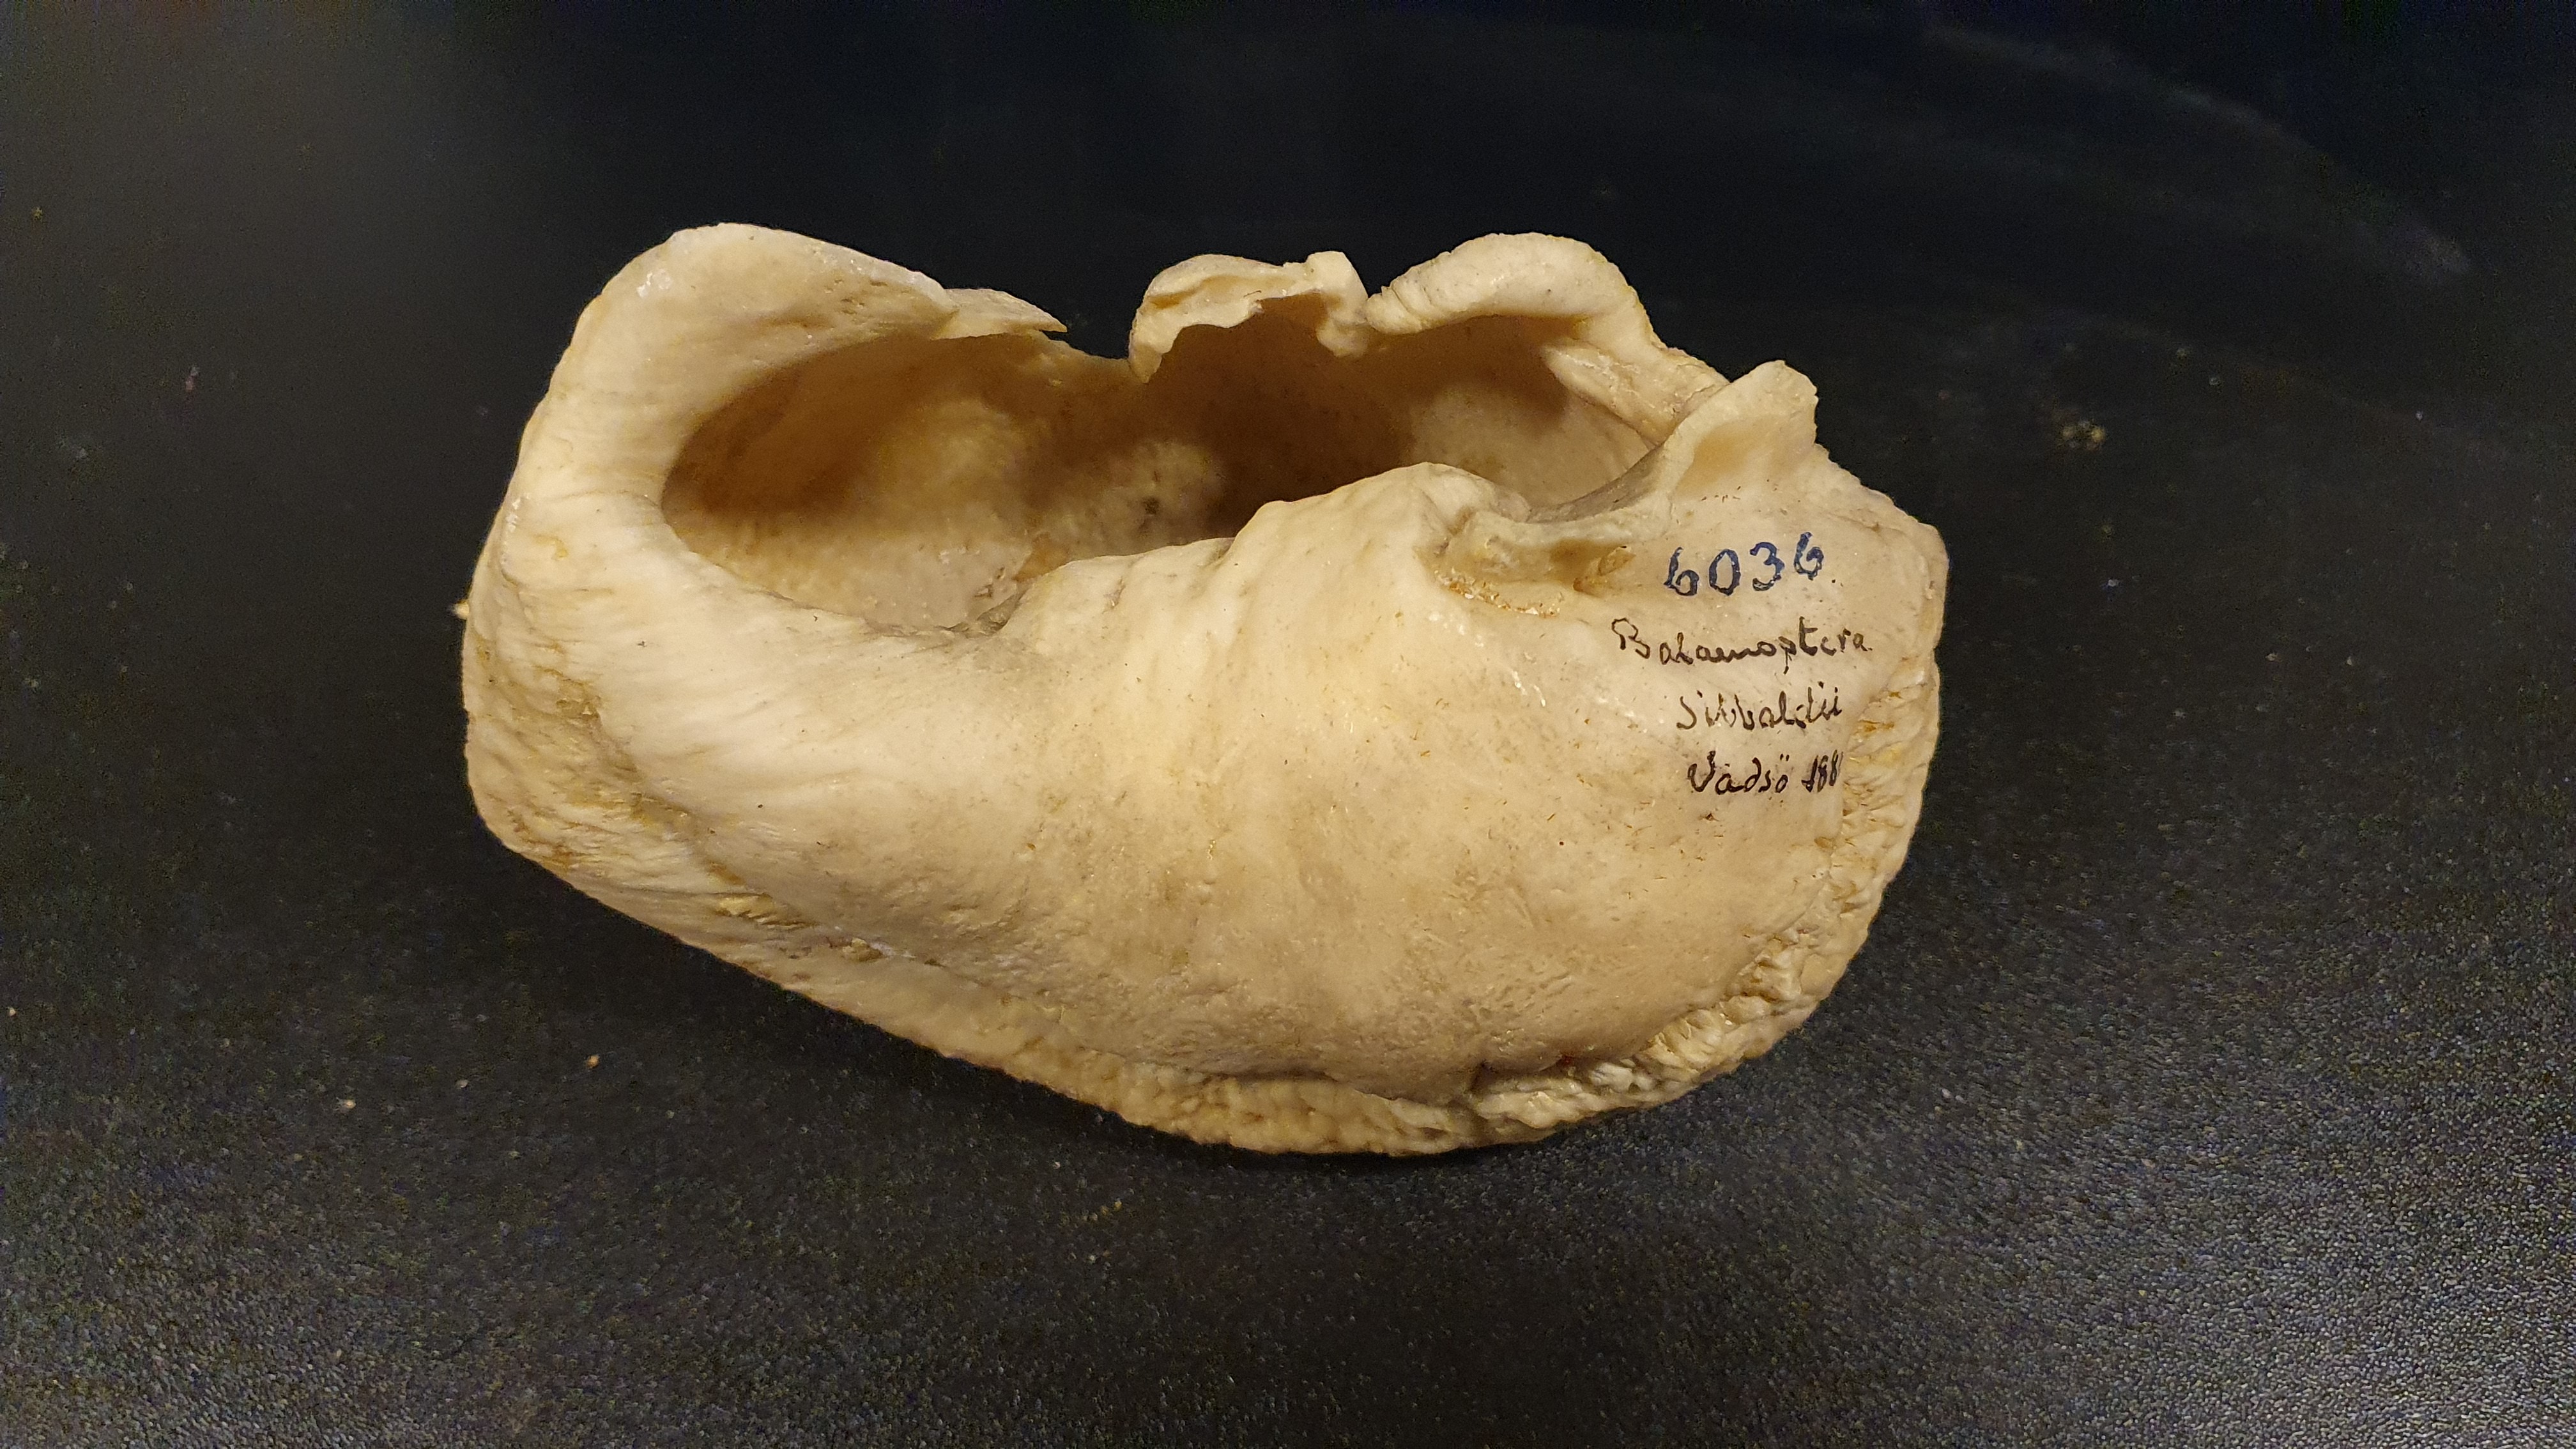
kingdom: Animalia
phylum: Chordata
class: Mammalia
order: Cetacea
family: Balaenopteridae
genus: Balaenoptera
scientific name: Balaenoptera musculus
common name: Blue whale
